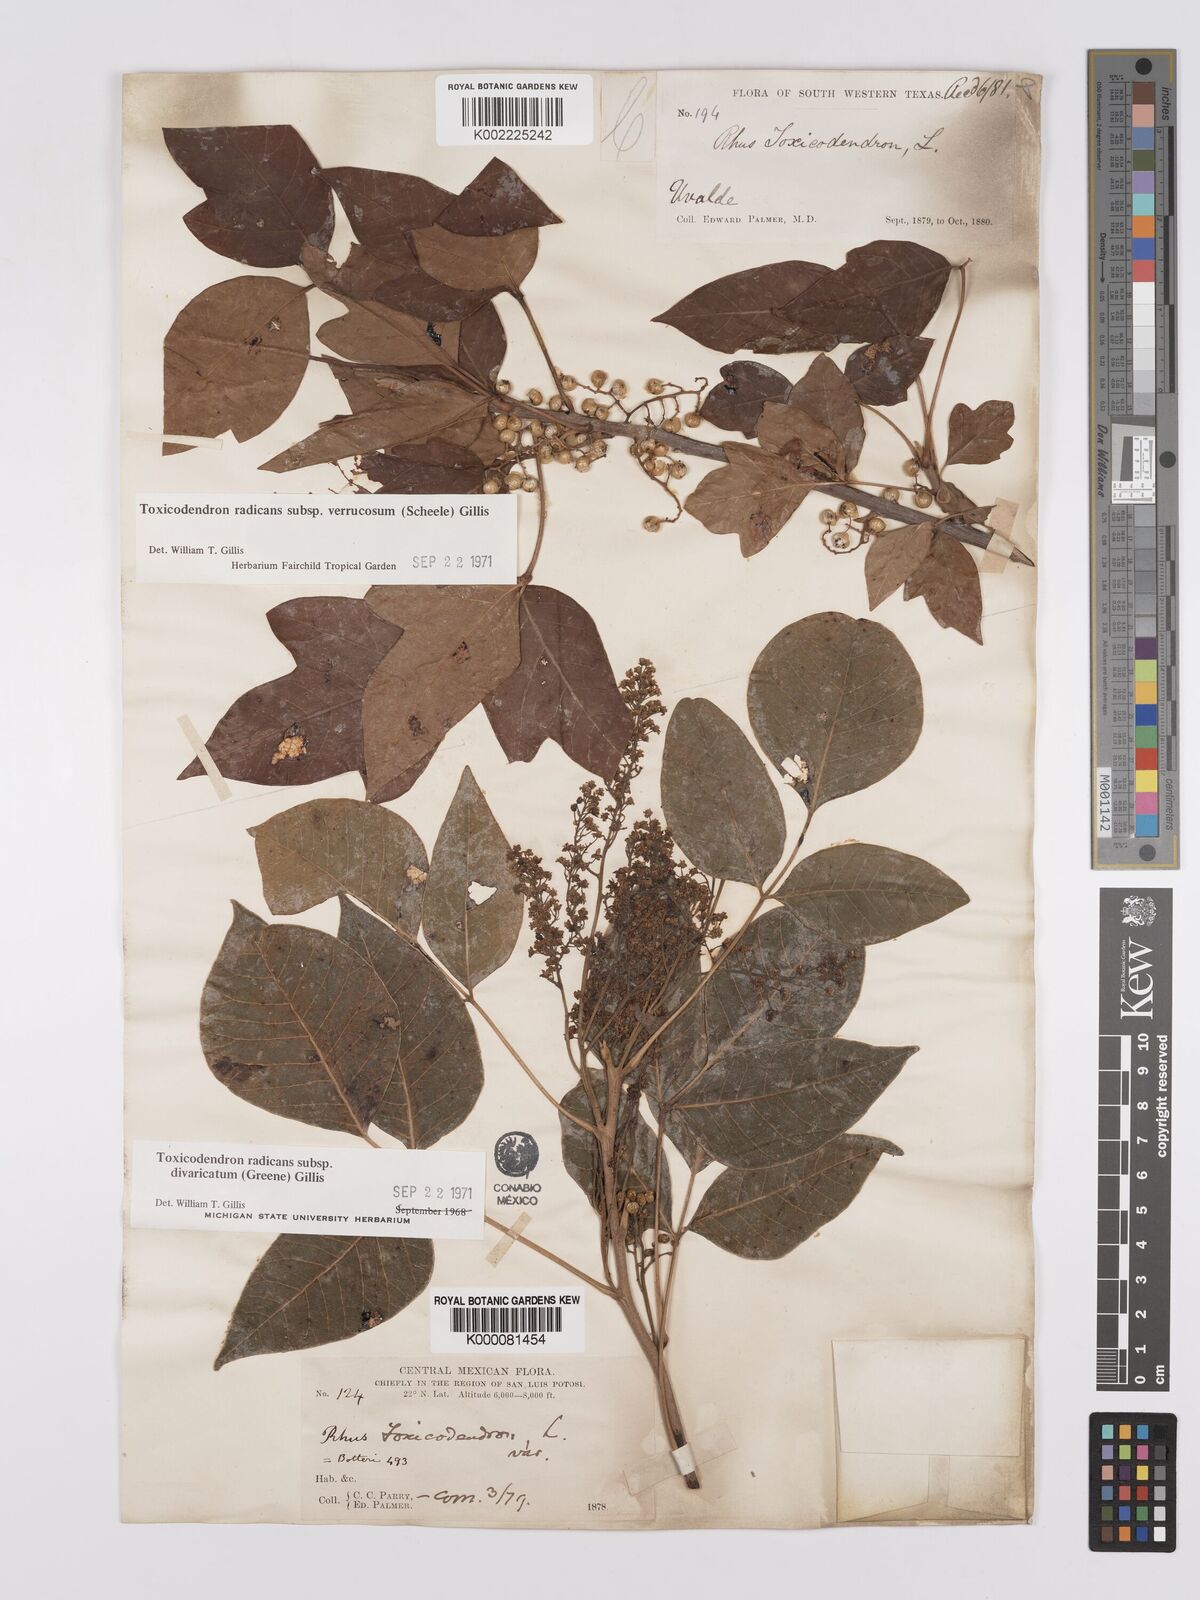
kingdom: Plantae
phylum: Tracheophyta
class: Magnoliopsida
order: Sapindales
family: Anacardiaceae
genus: Toxicodendron
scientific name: Toxicodendron radicans
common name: Poison ivy
